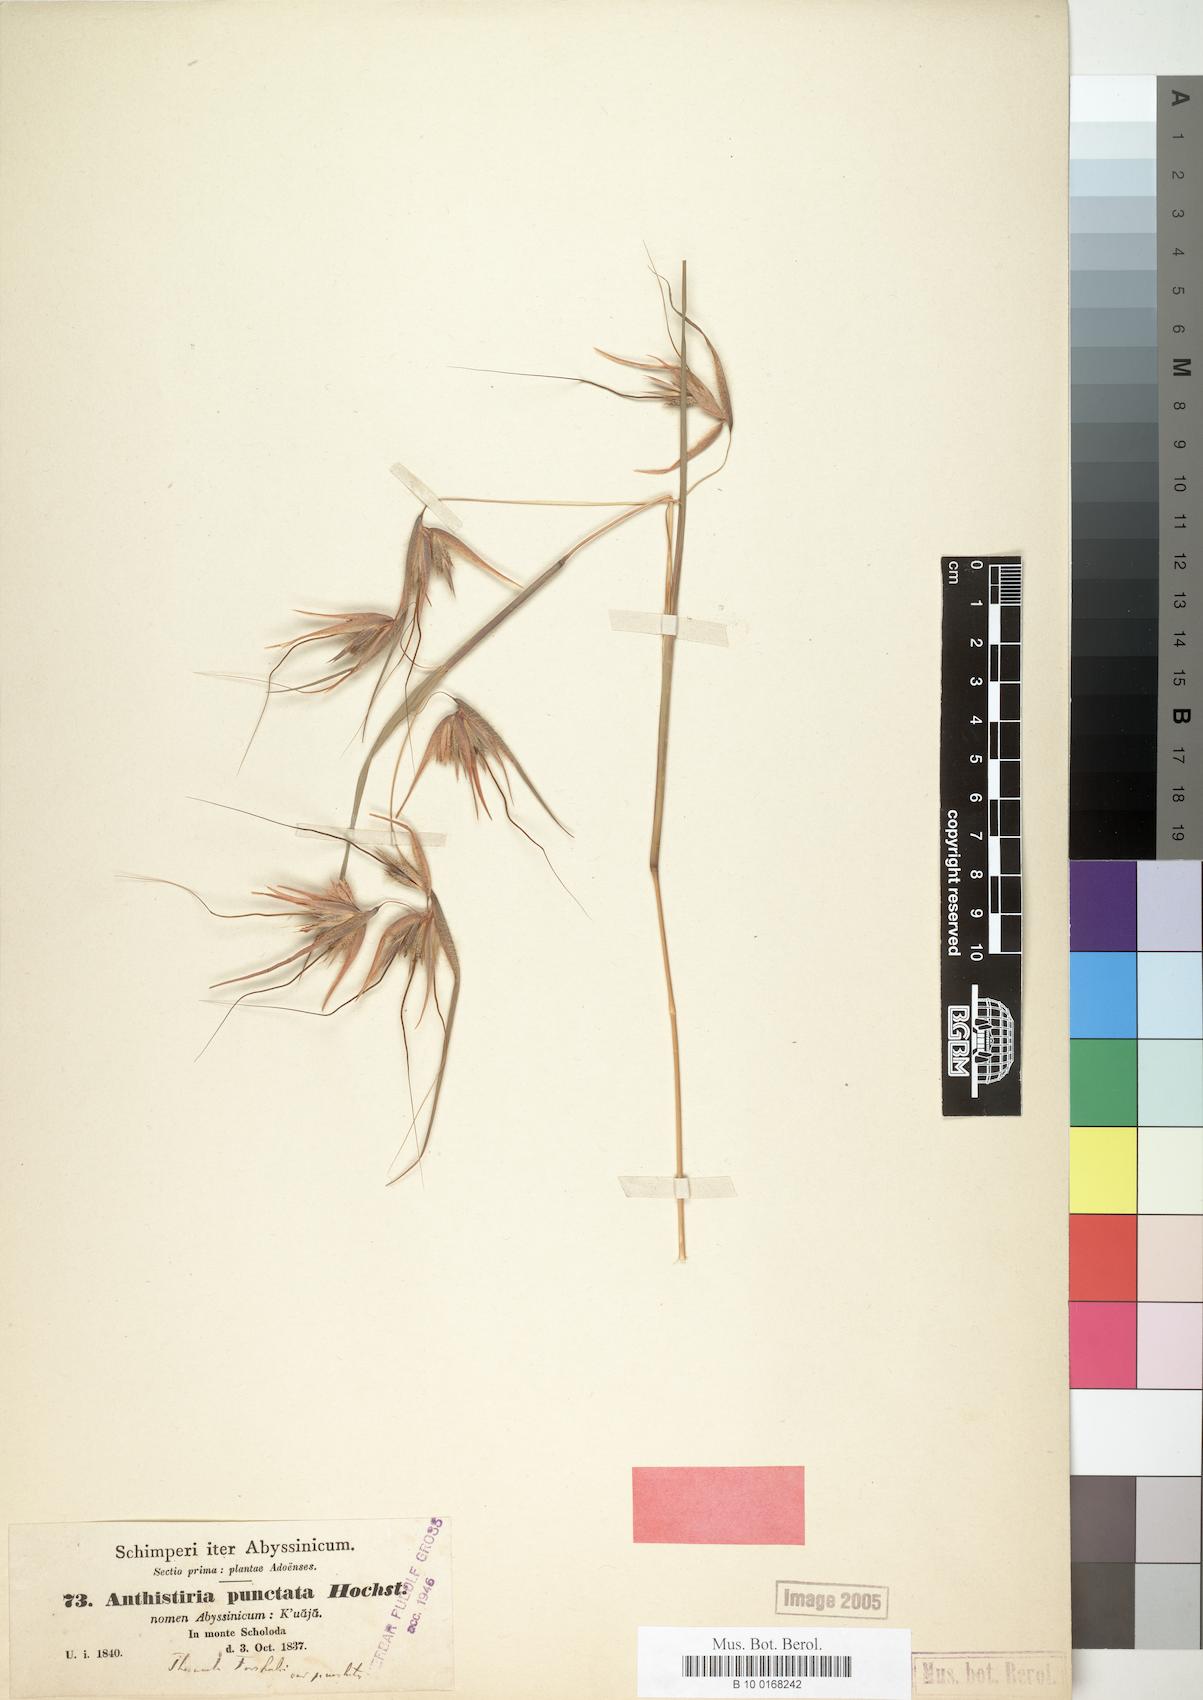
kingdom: Plantae
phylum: Tracheophyta
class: Liliopsida
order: Poales
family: Poaceae
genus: Themeda
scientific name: Themeda triandra
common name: Kangaroo grass
